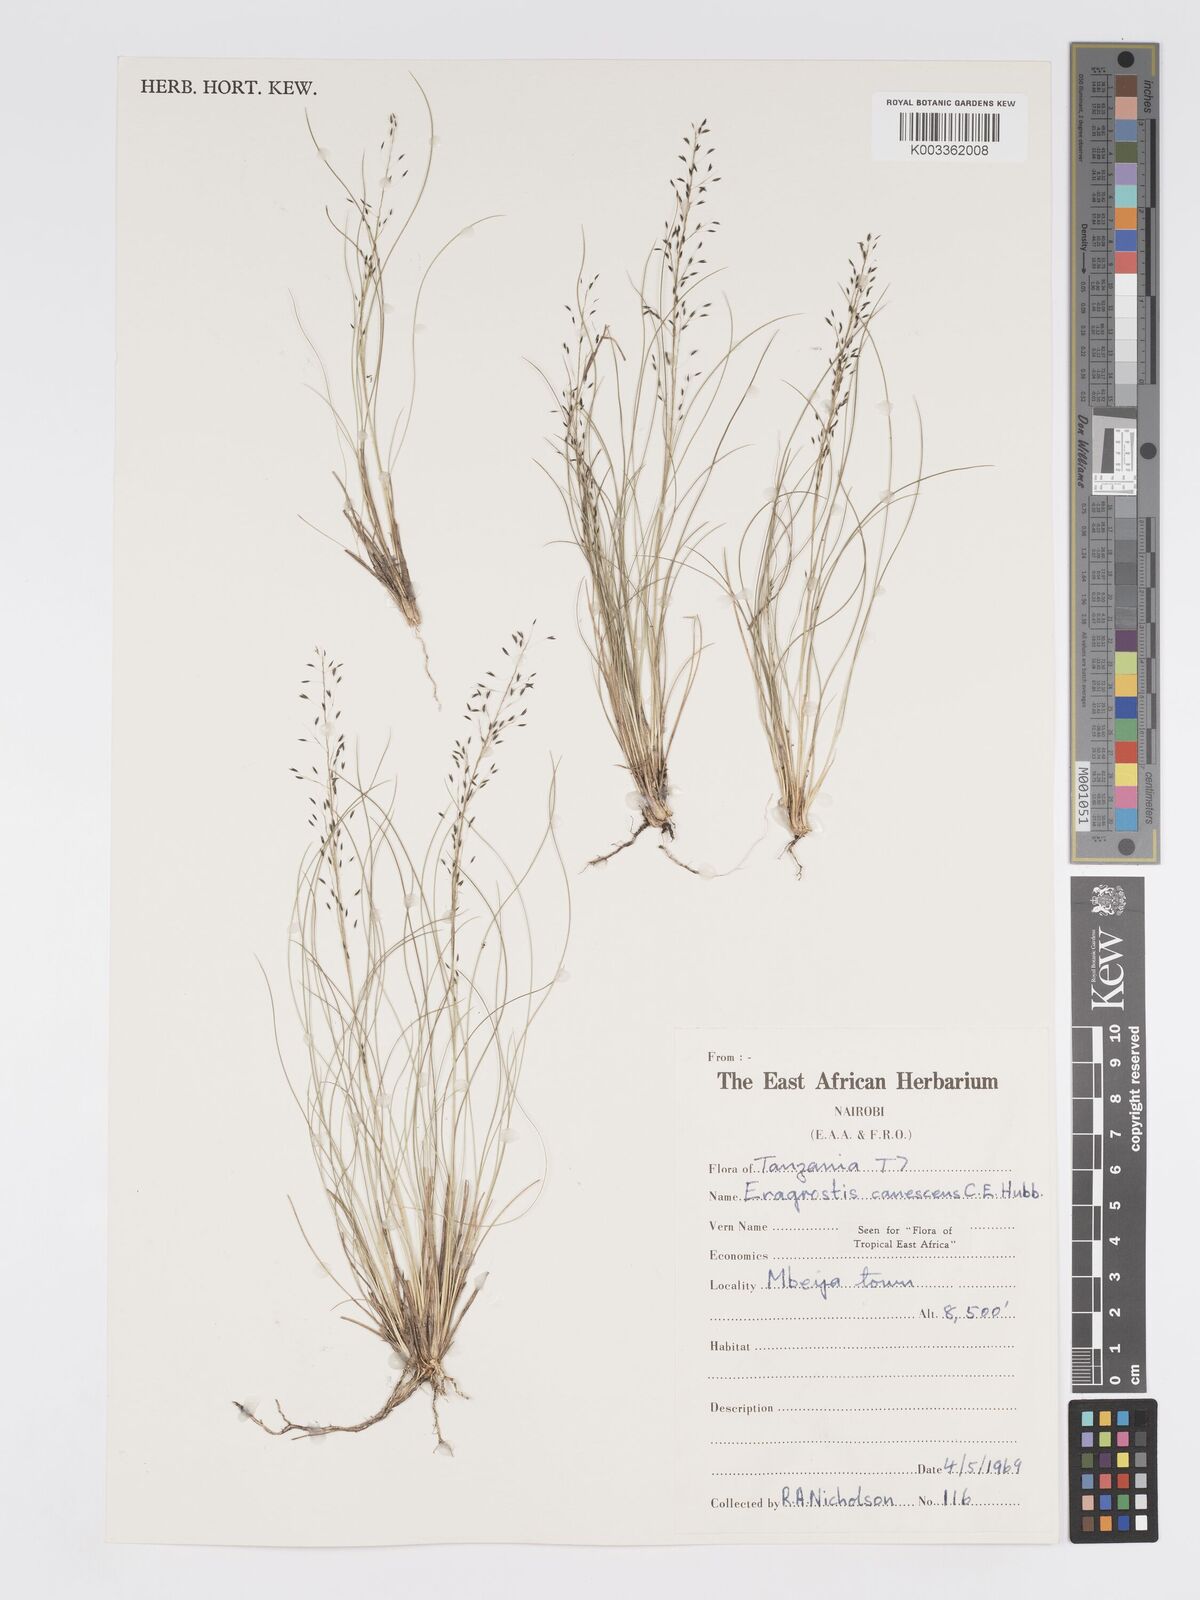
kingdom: Plantae
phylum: Tracheophyta
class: Liliopsida
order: Poales
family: Poaceae
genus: Eragrostis
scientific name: Eragrostis canescens
